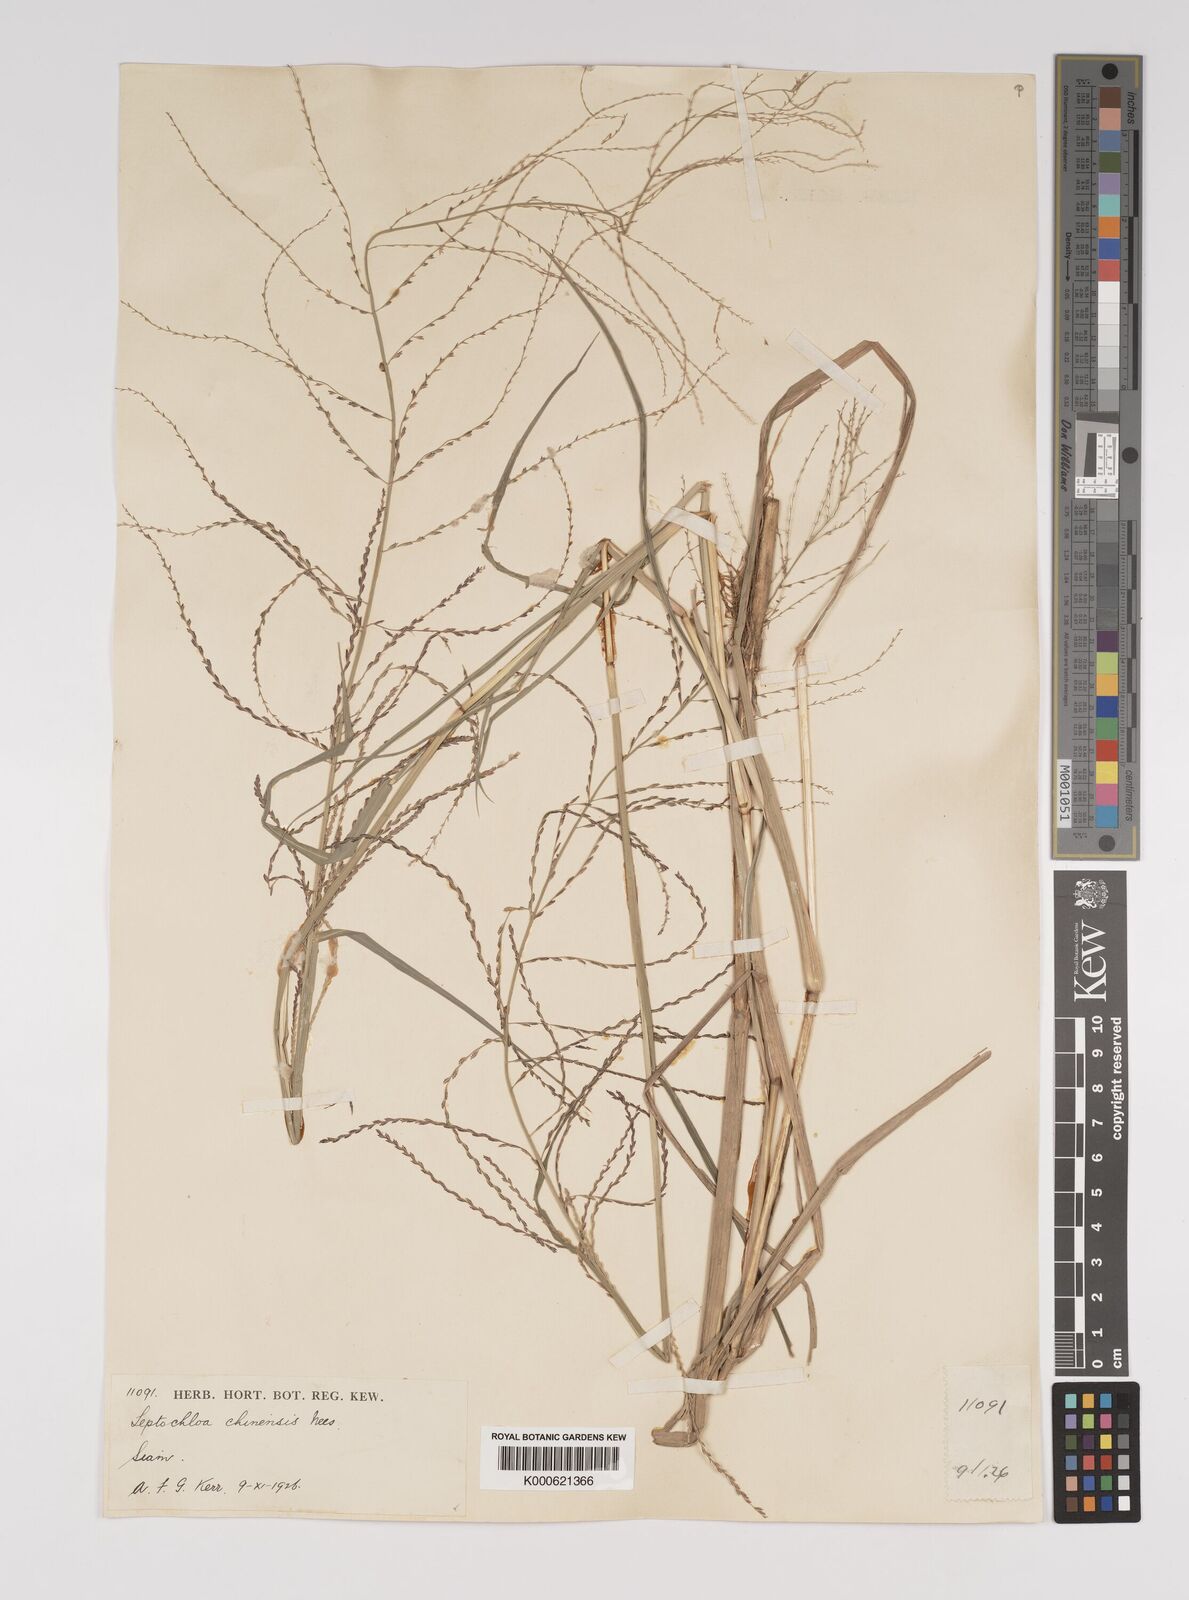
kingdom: Plantae
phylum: Tracheophyta
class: Liliopsida
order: Poales
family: Poaceae
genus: Leptochloa
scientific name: Leptochloa chinensis
